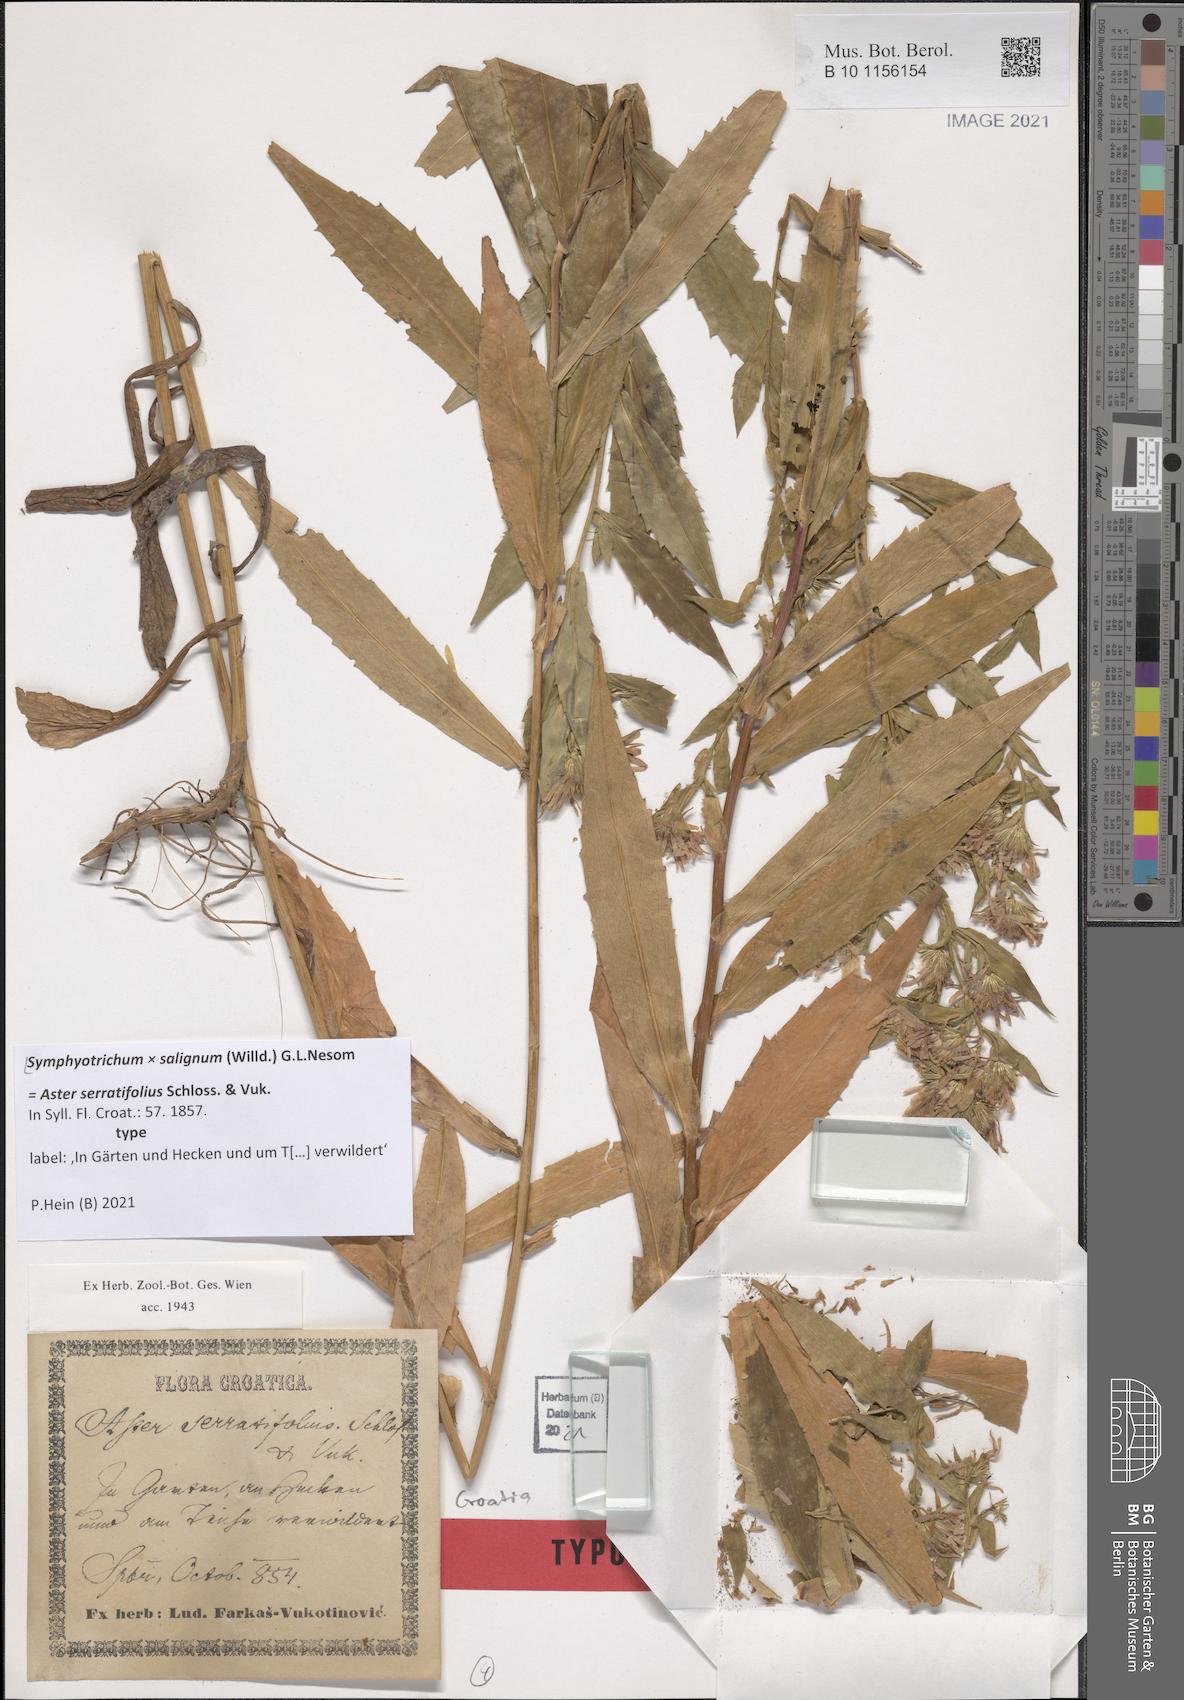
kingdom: Plantae
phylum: Tracheophyta
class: Magnoliopsida
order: Asterales
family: Asteraceae
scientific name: Asteraceae
